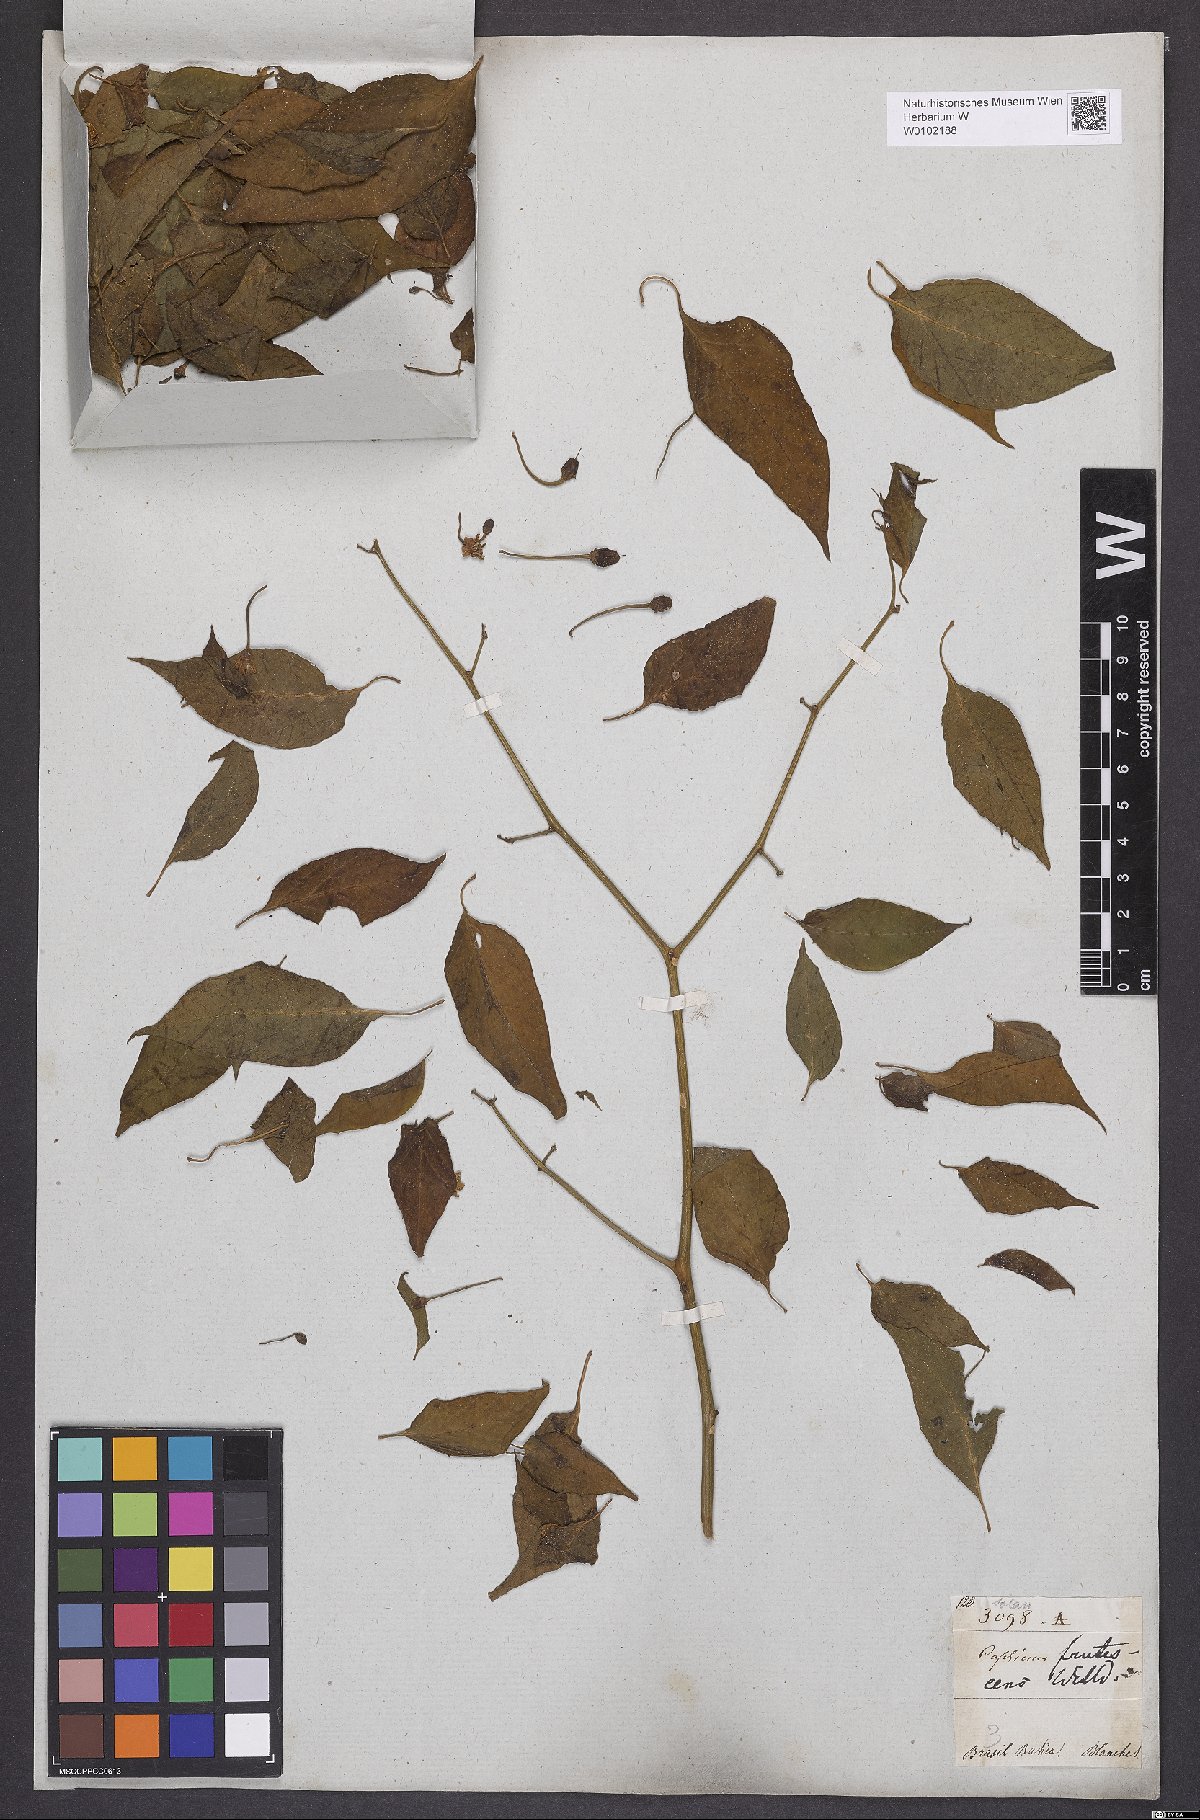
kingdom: Plantae
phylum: Tracheophyta
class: Magnoliopsida
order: Solanales
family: Solanaceae
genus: Capsicum
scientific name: Capsicum frutescens
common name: Bird pepper
